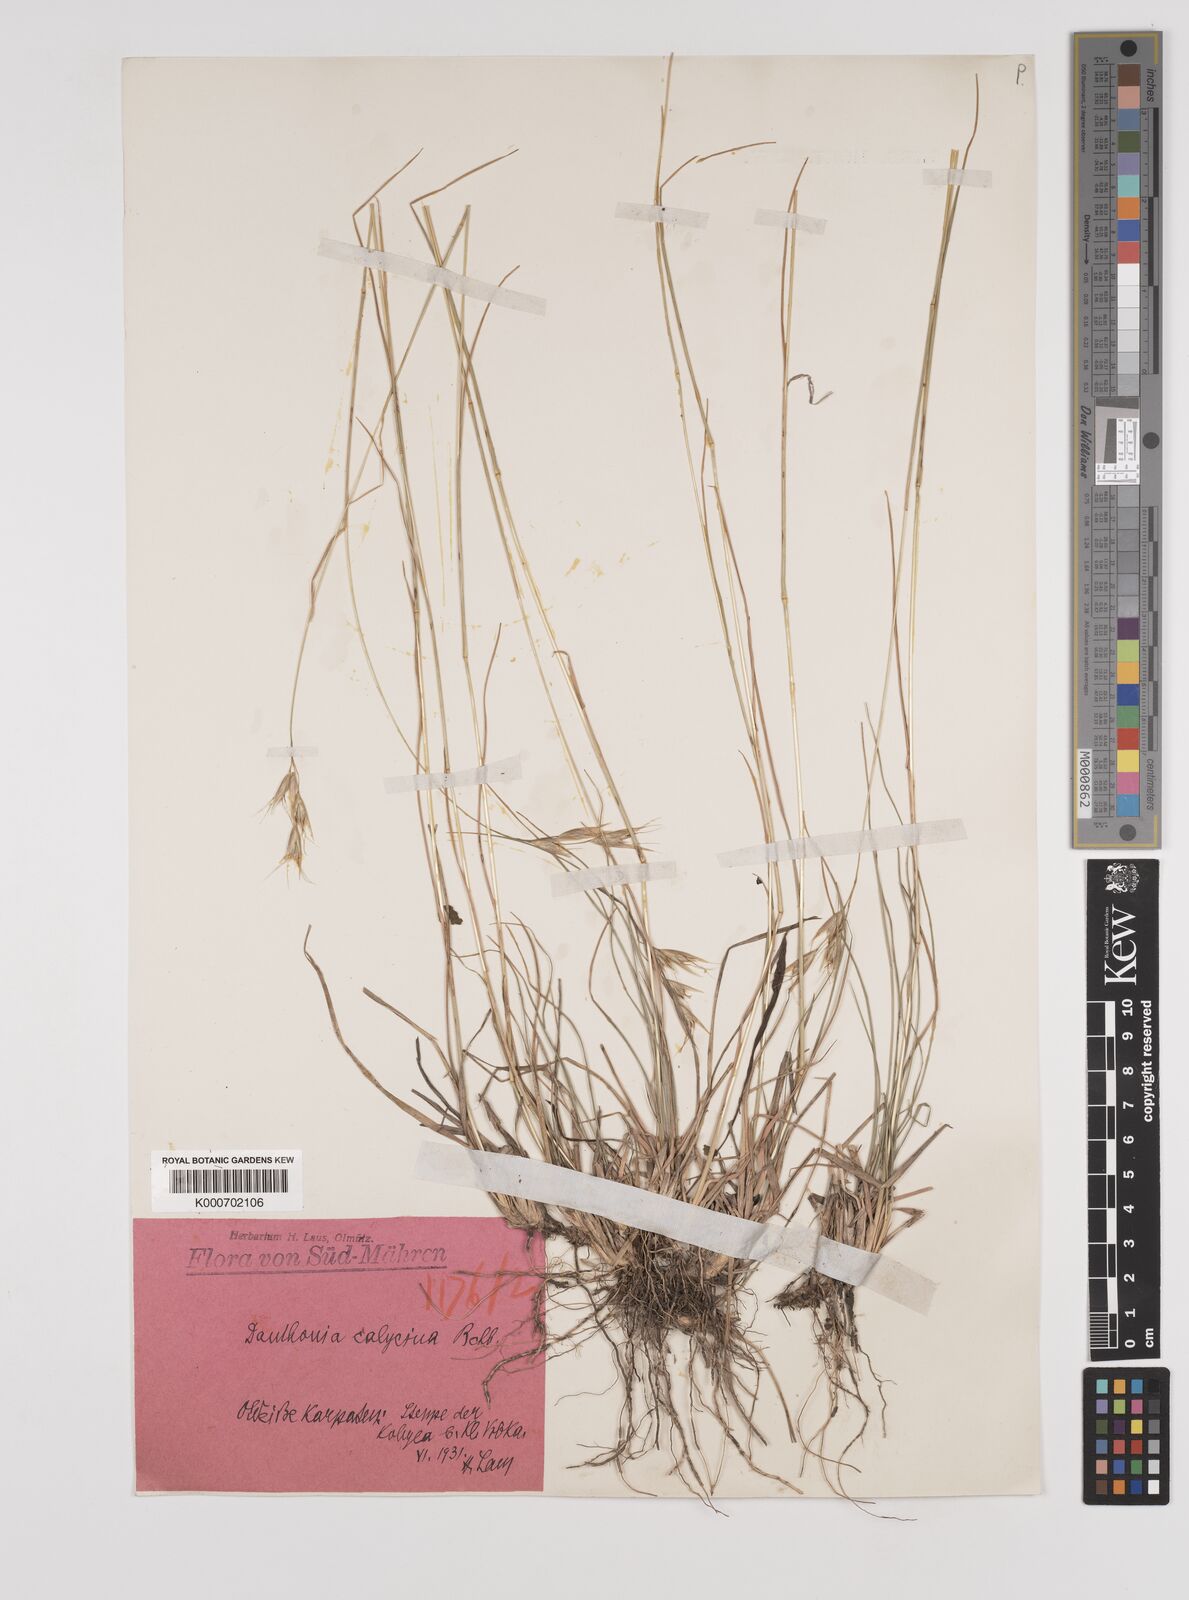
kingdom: Plantae
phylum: Tracheophyta
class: Liliopsida
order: Poales
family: Poaceae
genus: Danthonia
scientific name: Danthonia alpina
